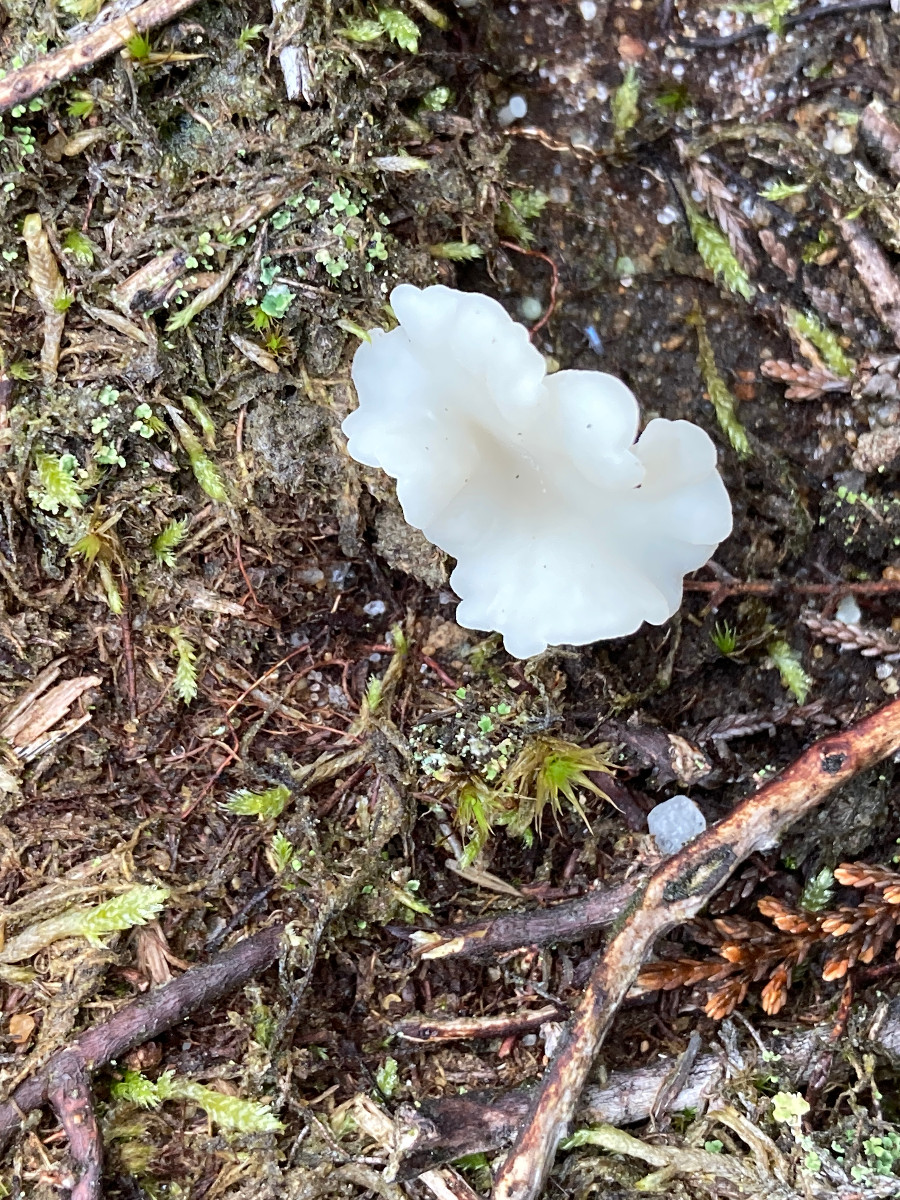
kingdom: Fungi
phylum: Basidiomycota
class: Agaricomycetes
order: Agaricales
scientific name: Agaricales
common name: champignonordenen
